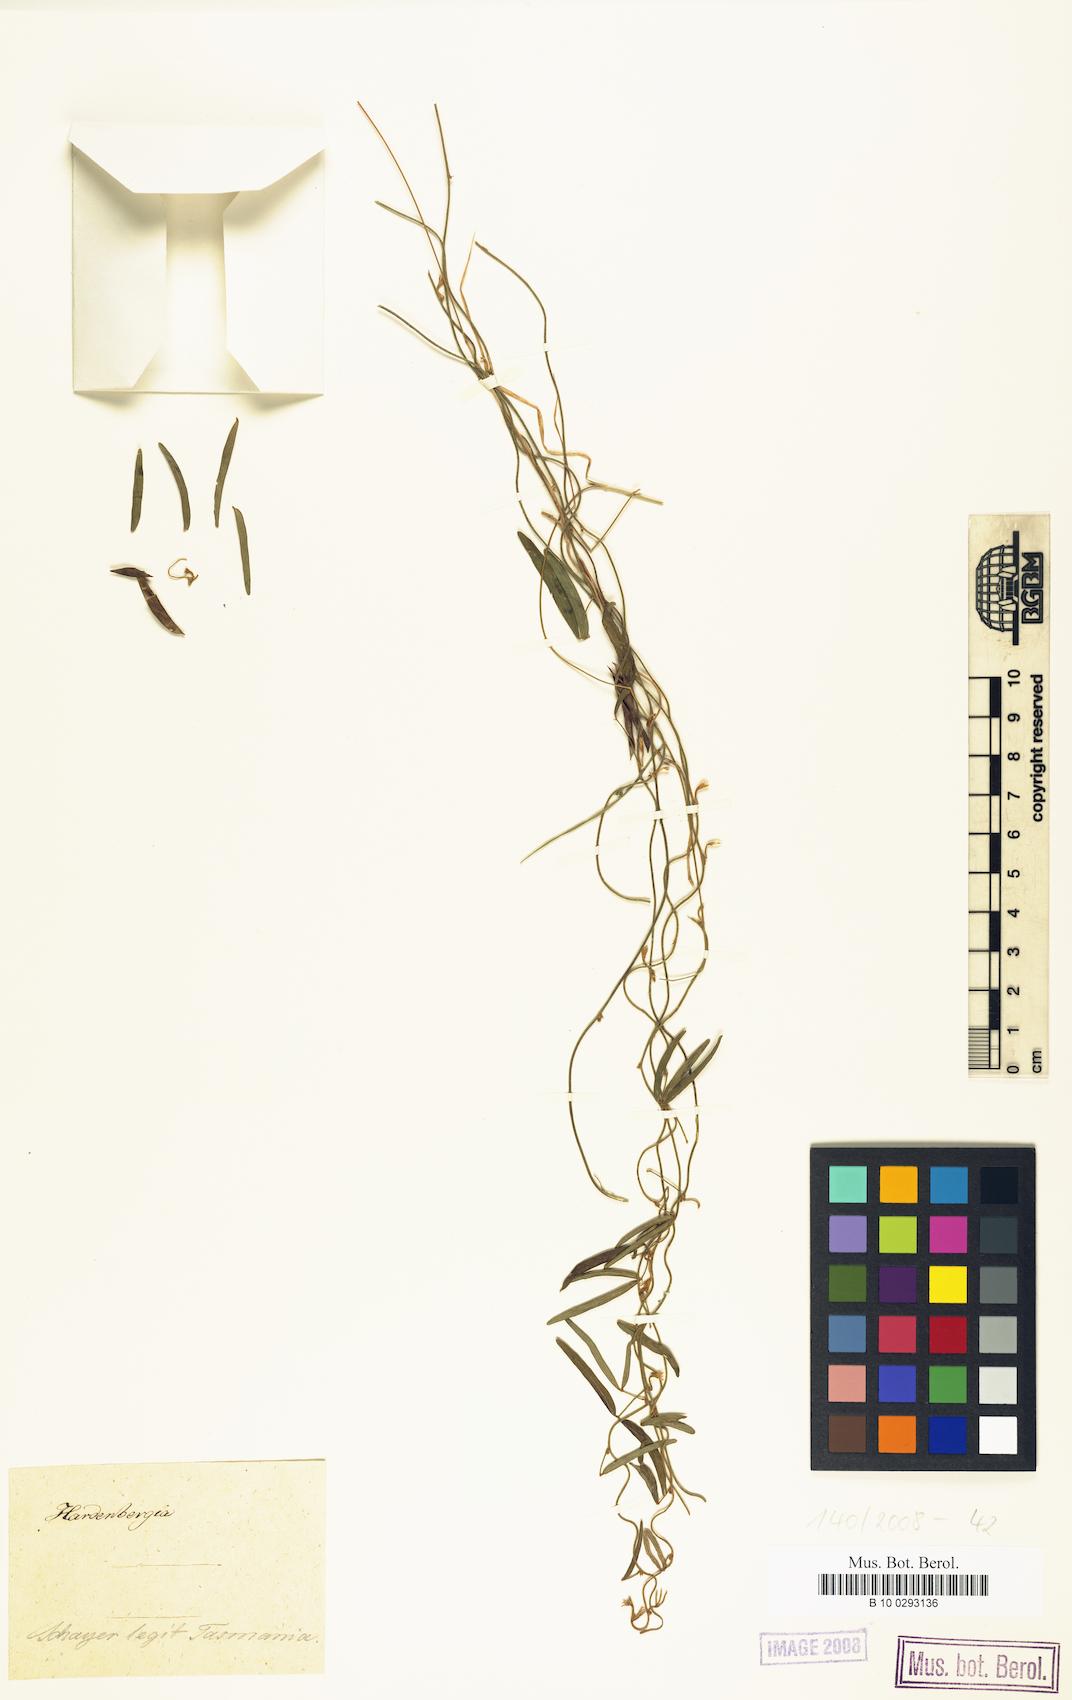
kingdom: Plantae
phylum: Tracheophyta
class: Magnoliopsida
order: Fabales
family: Fabaceae
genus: Hardenbergia
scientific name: Hardenbergia
